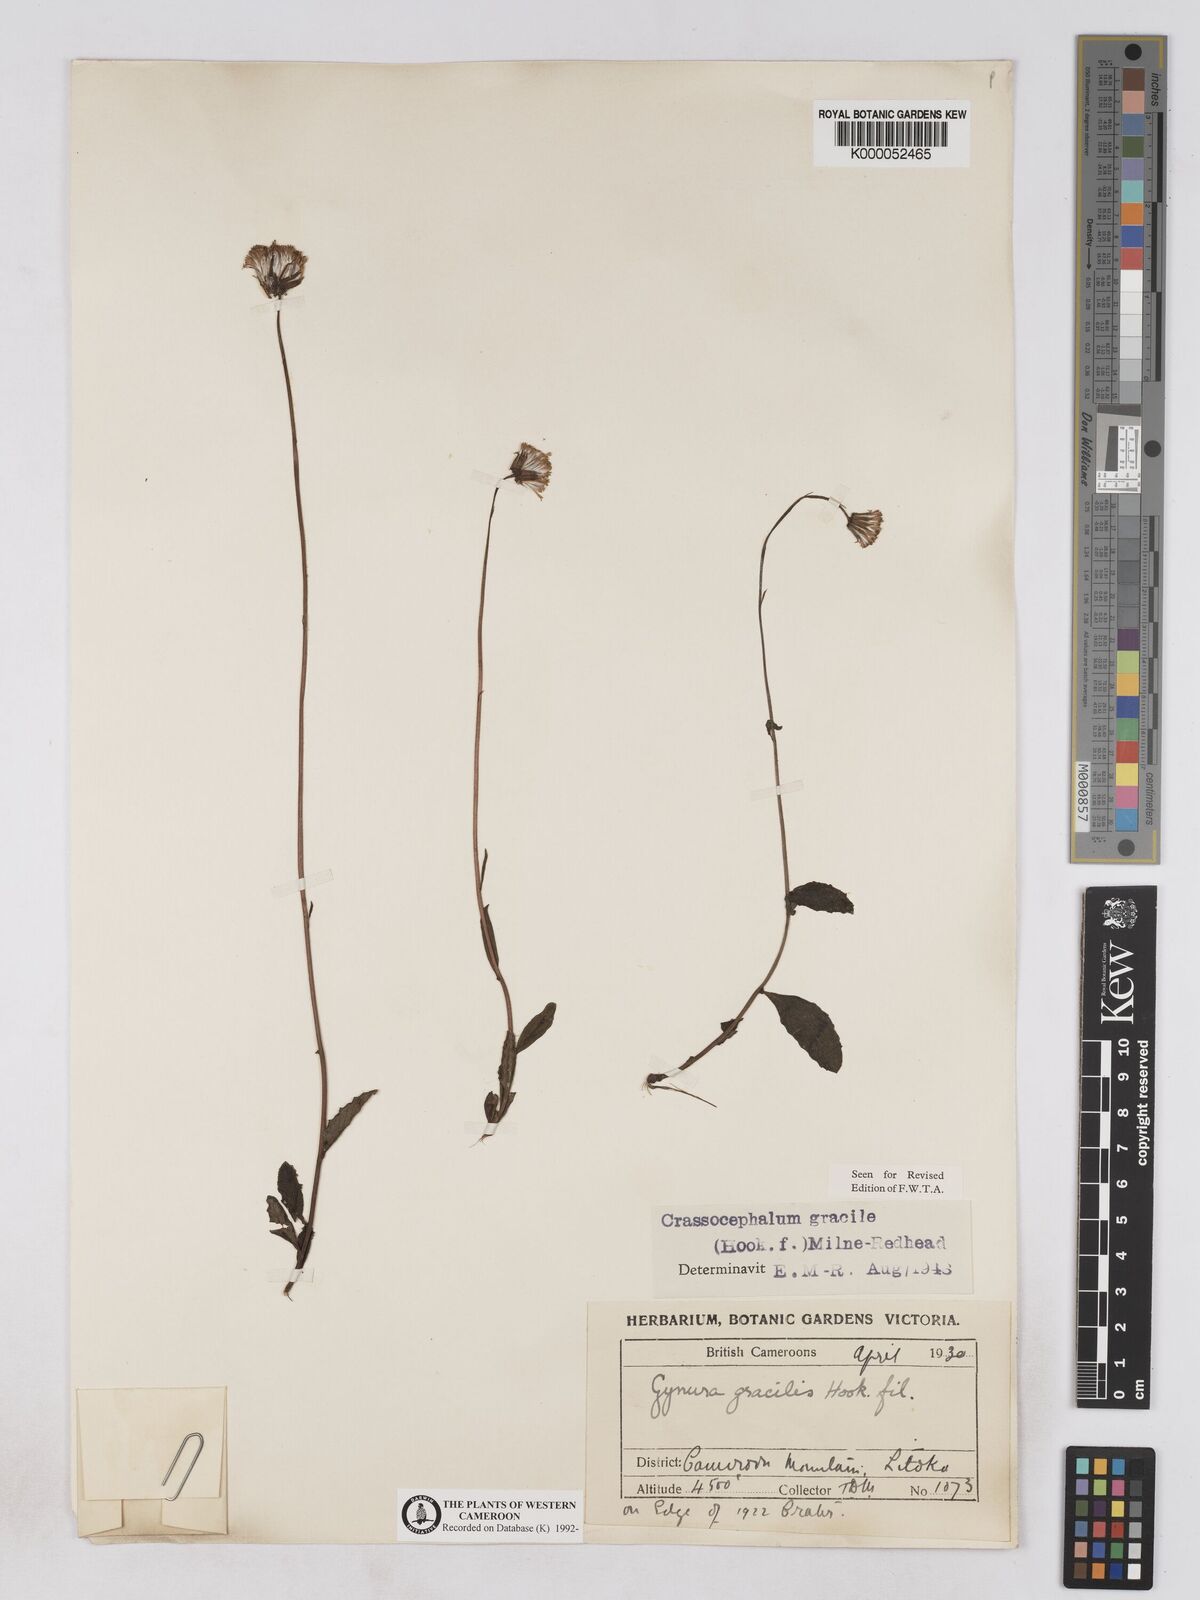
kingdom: Plantae
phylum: Tracheophyta
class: Magnoliopsida
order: Asterales
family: Asteraceae
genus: Crassocephalum
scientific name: Crassocephalum
